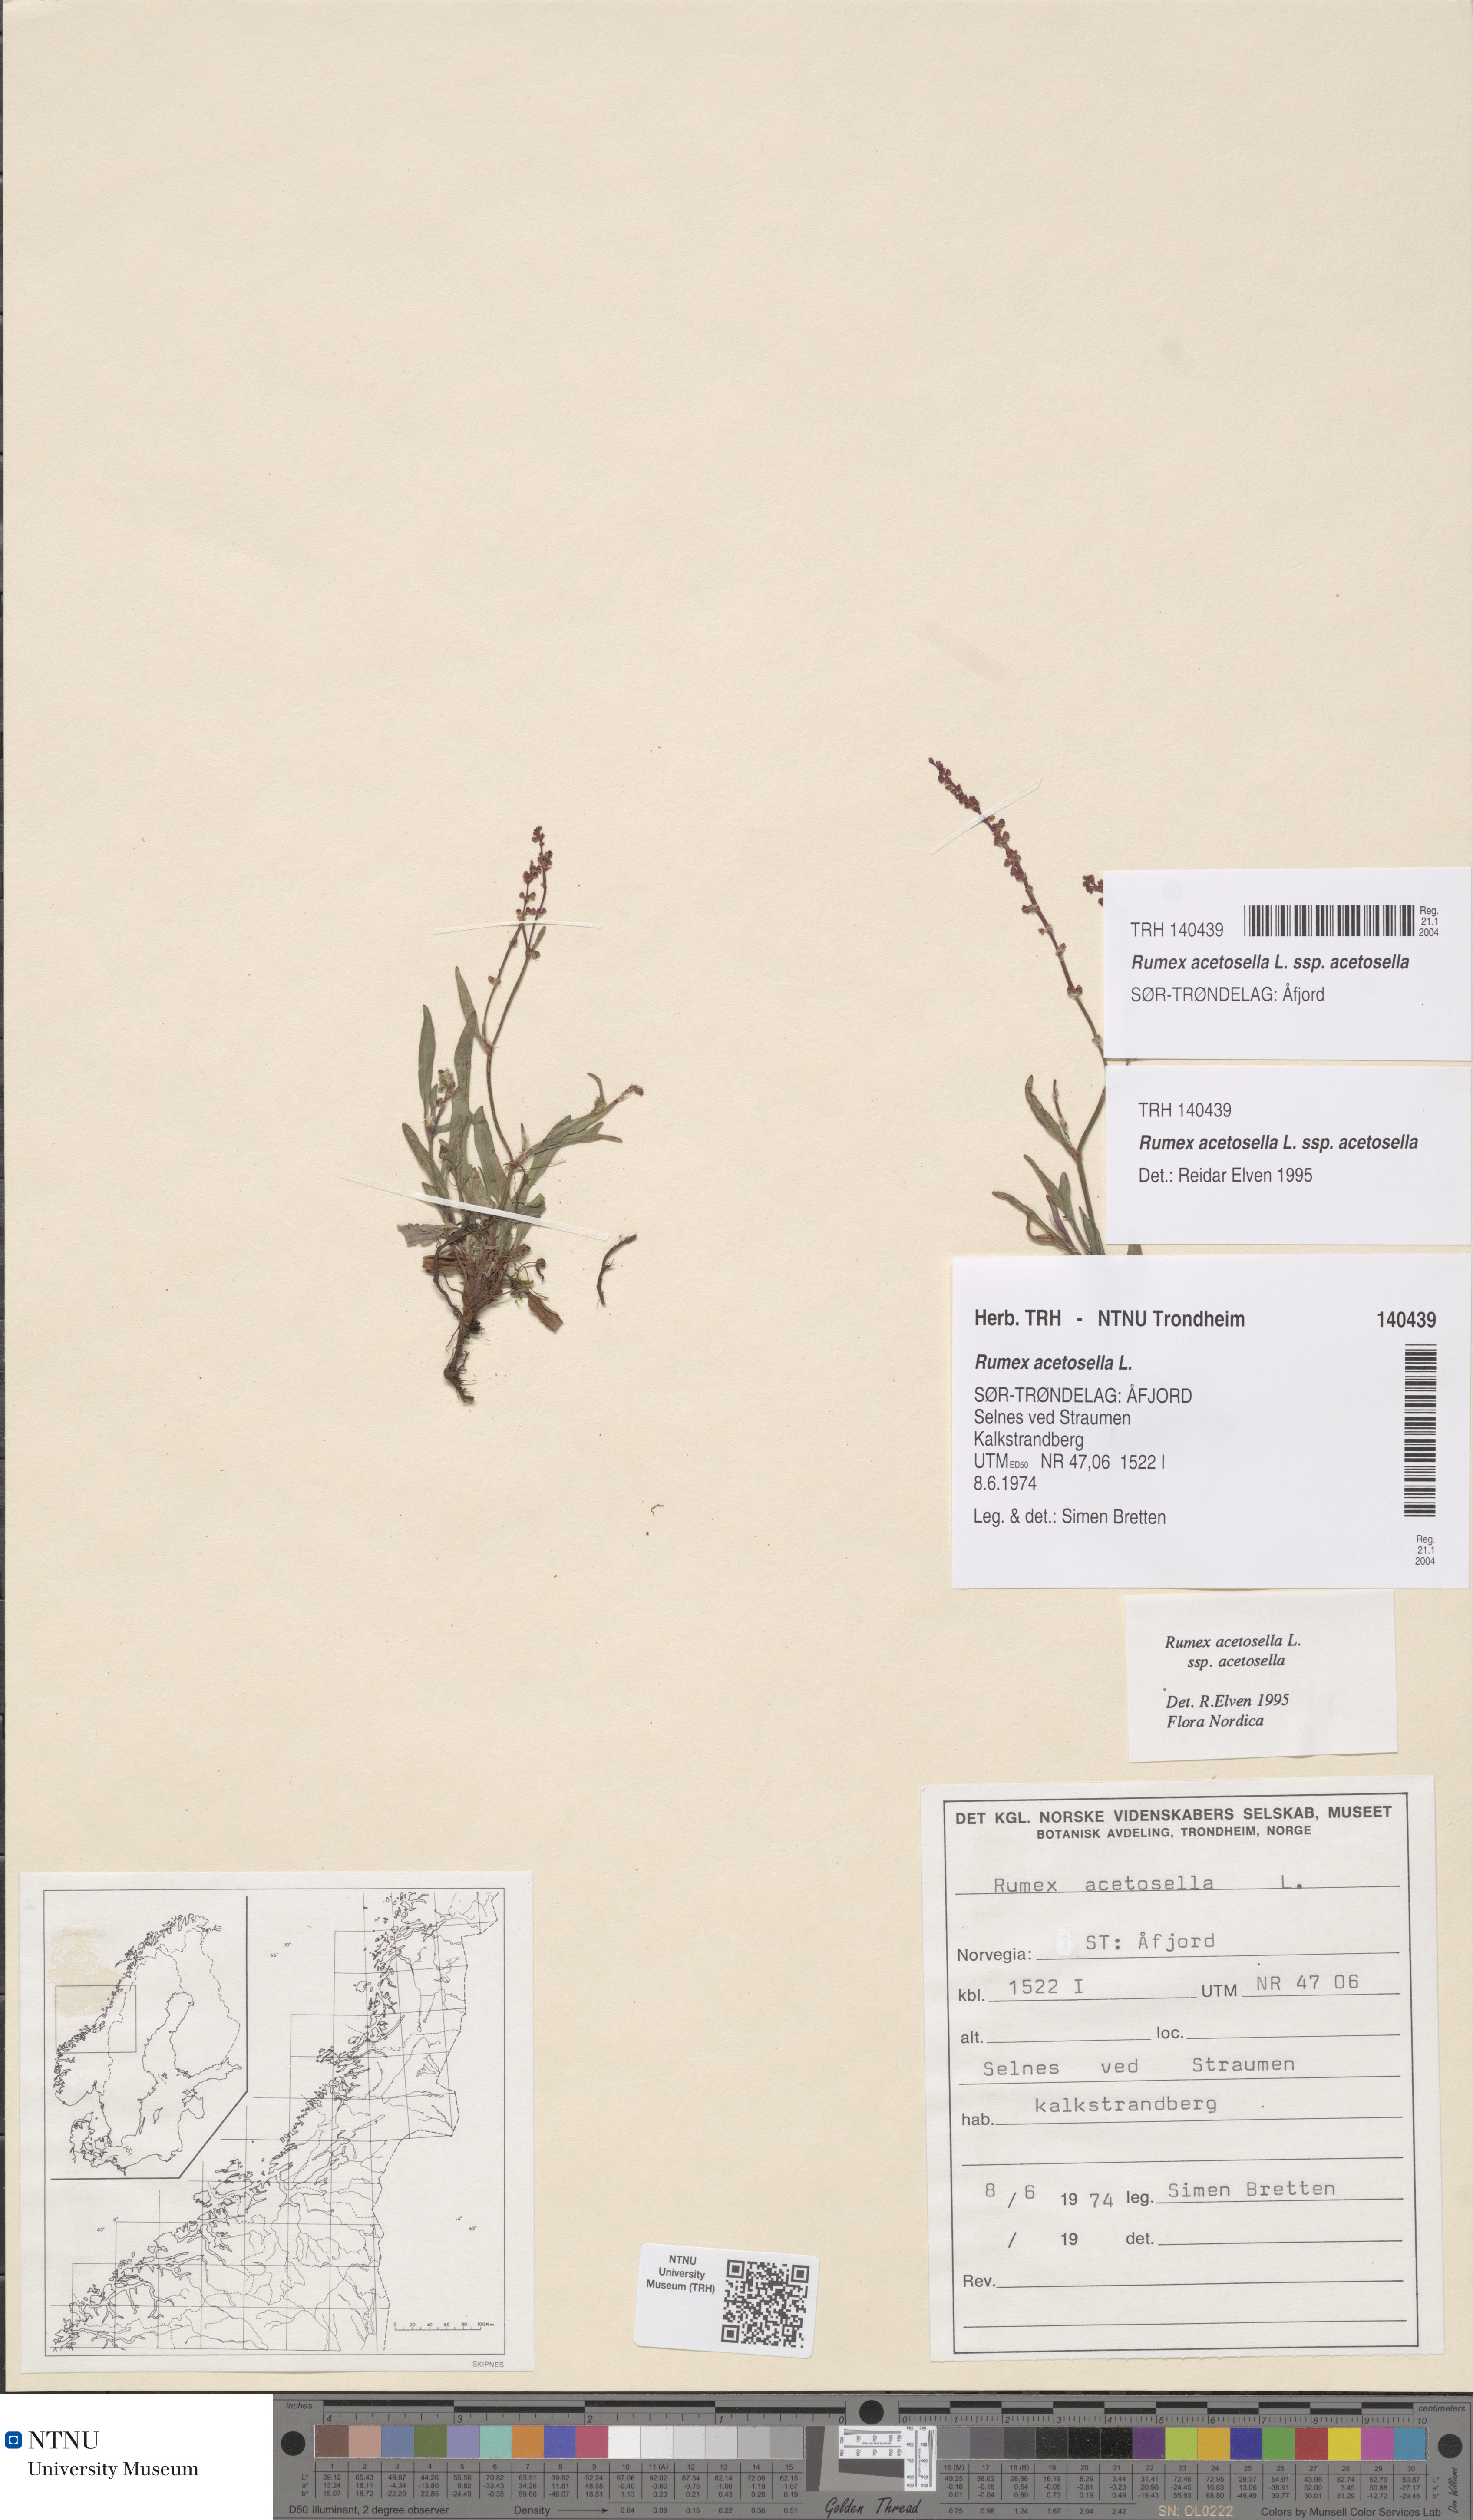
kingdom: Plantae
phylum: Tracheophyta
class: Magnoliopsida
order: Caryophyllales
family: Polygonaceae
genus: Rumex
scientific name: Rumex acetosella
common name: Common sheep sorrel
